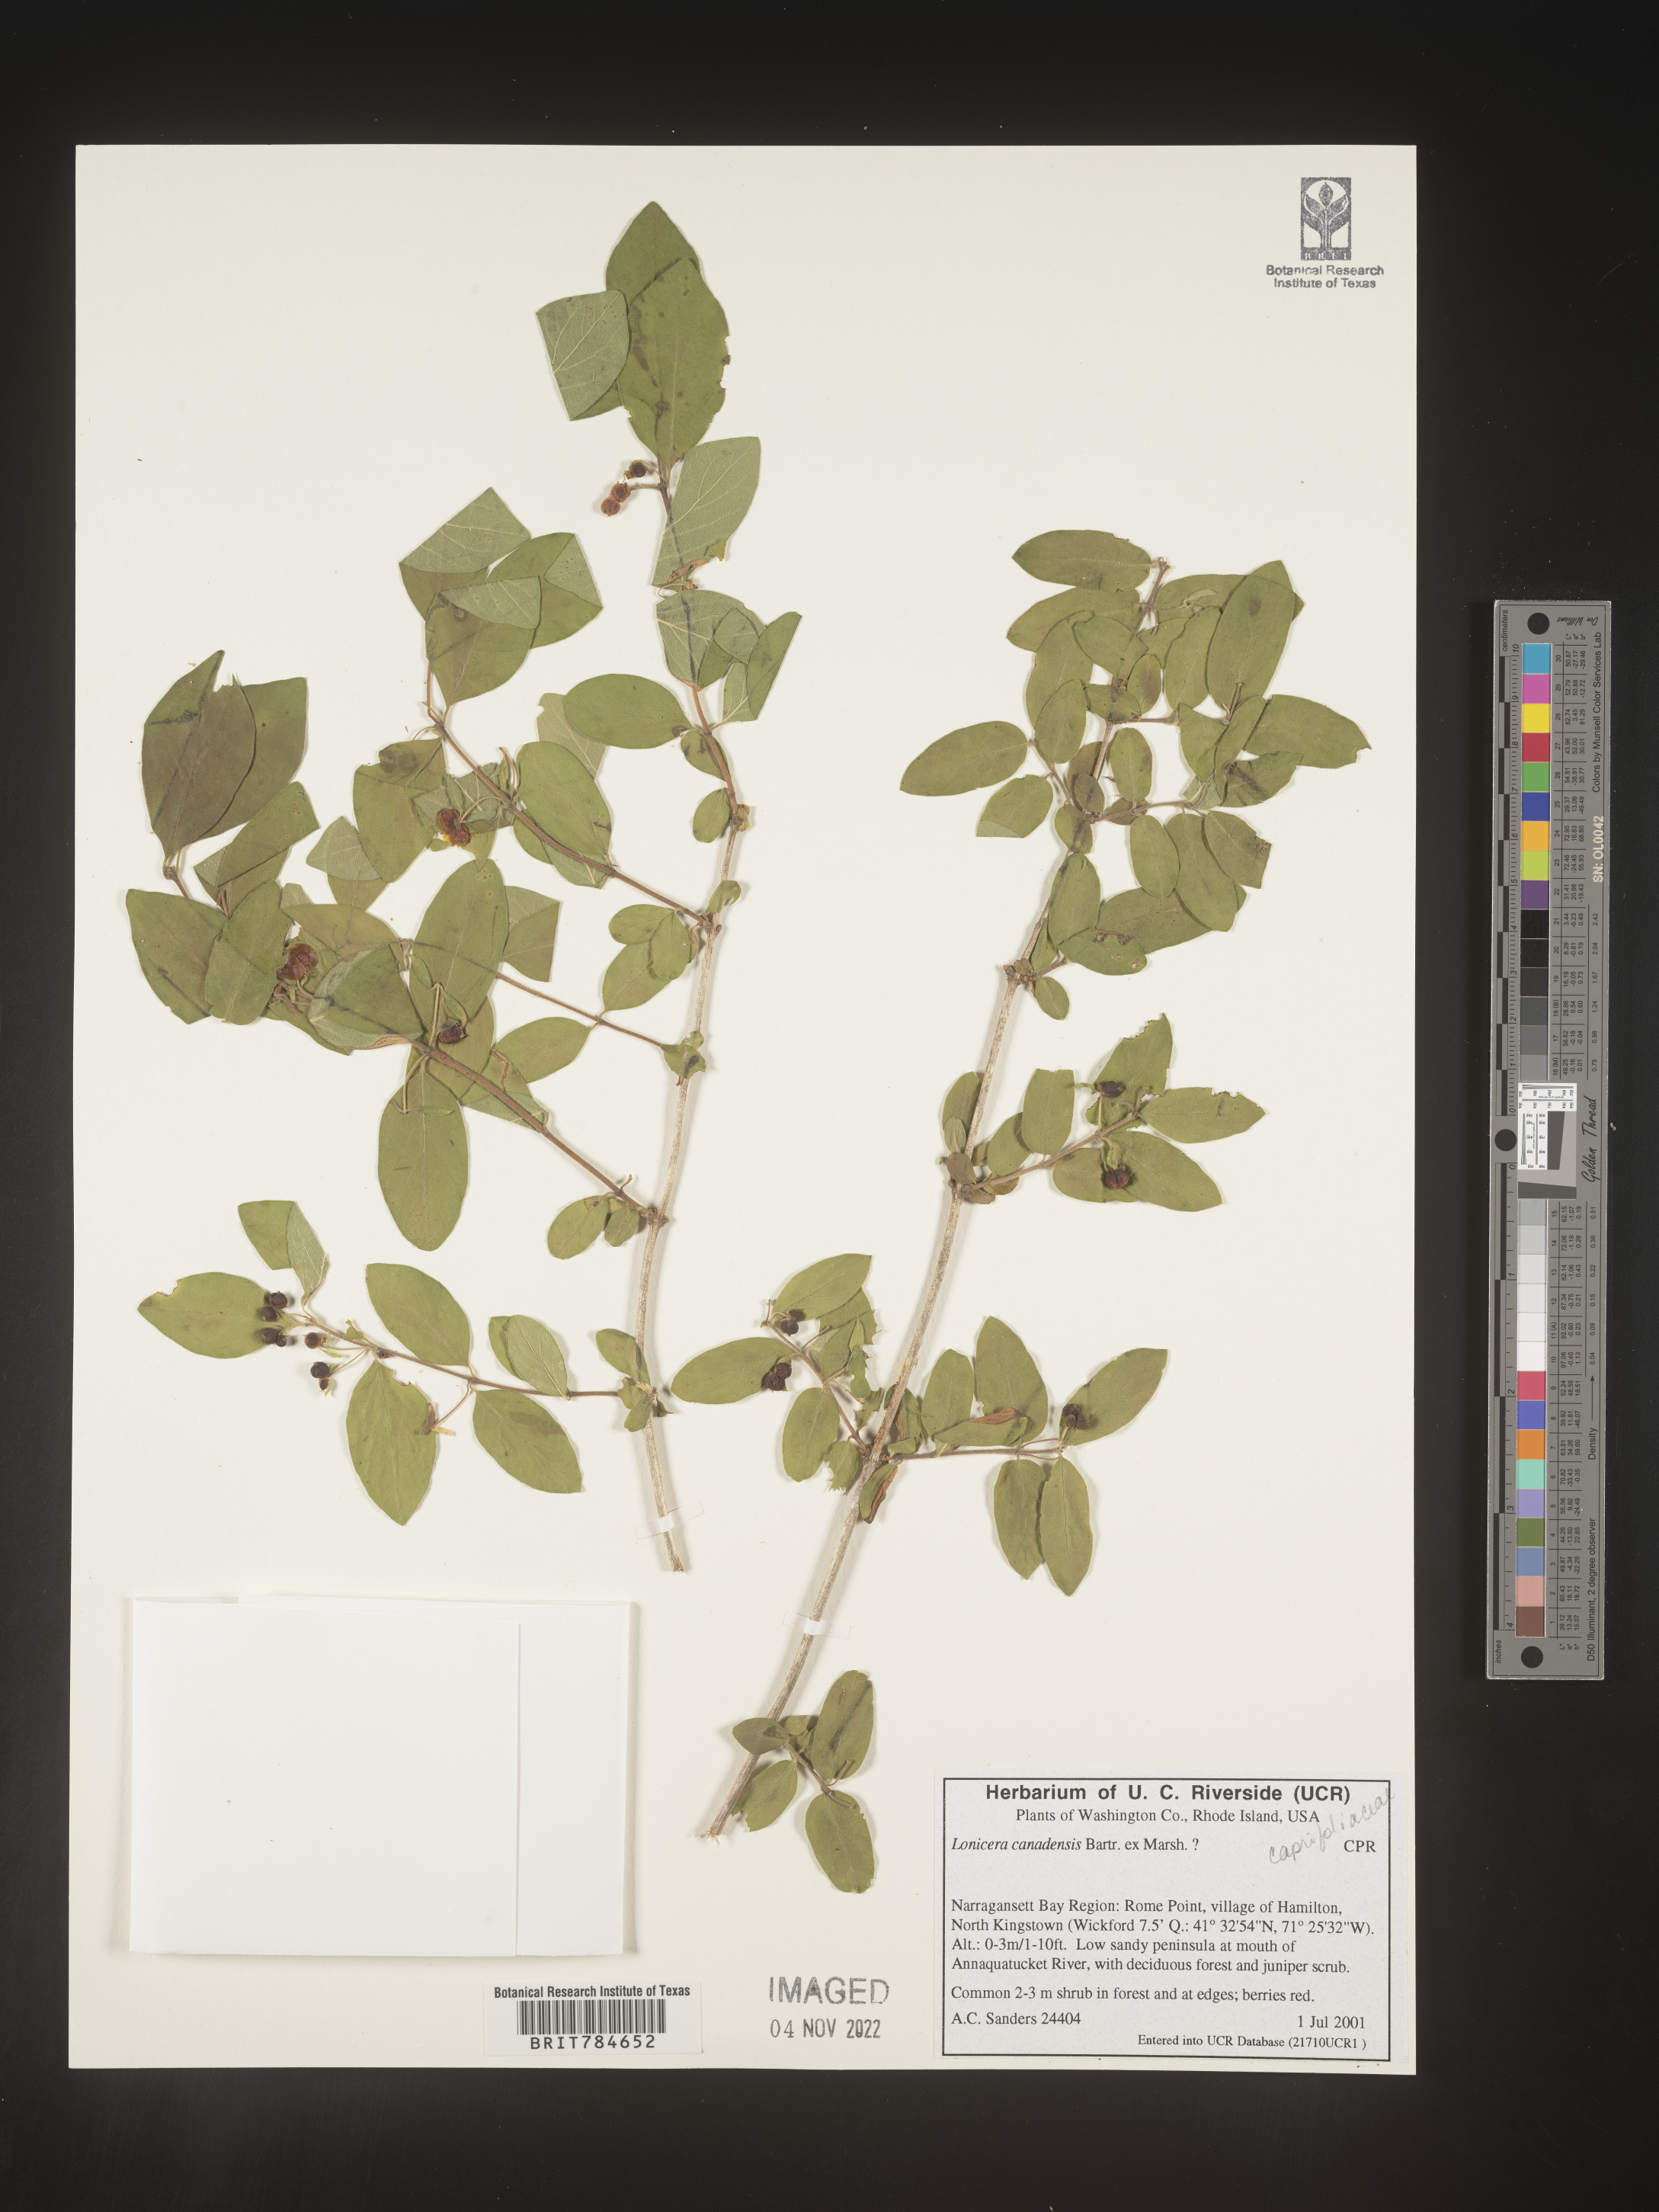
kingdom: Plantae
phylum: Tracheophyta
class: Magnoliopsida
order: Dipsacales
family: Caprifoliaceae
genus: Lonicera
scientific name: Lonicera
